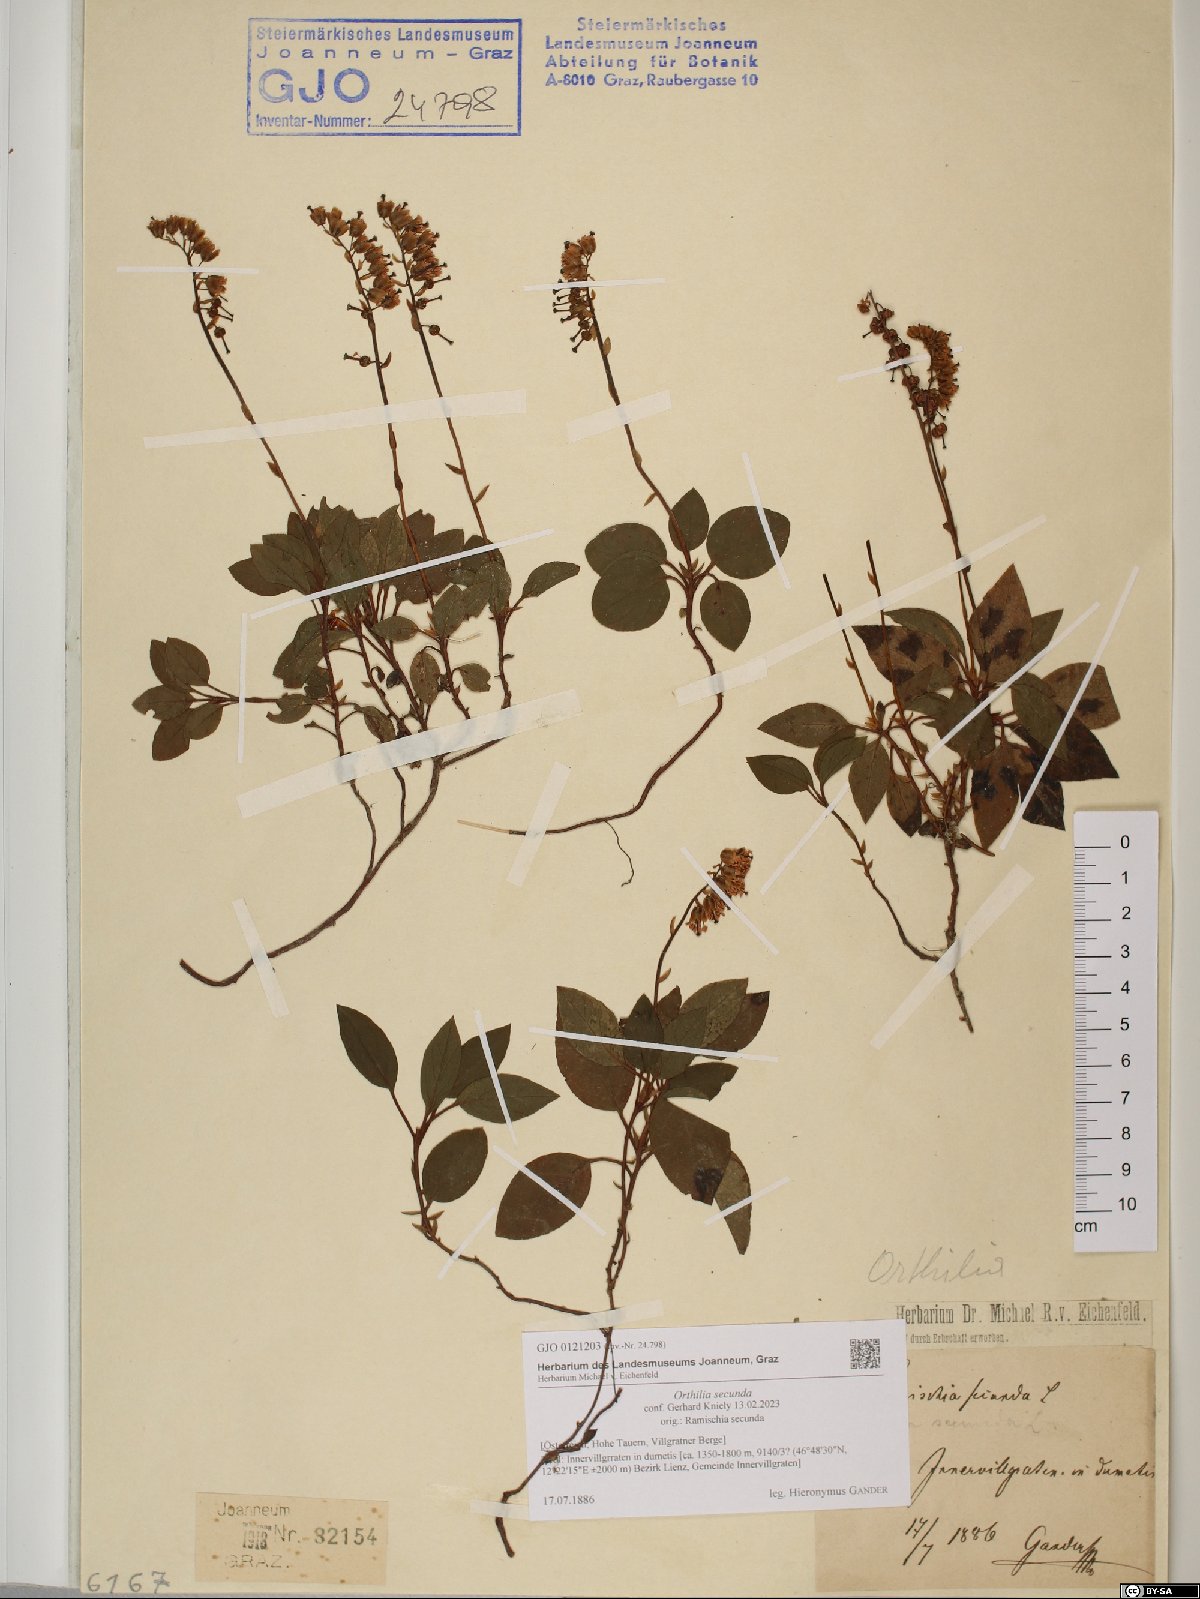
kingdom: Plantae
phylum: Tracheophyta
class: Magnoliopsida
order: Ericales
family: Ericaceae
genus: Orthilia
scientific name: Orthilia secunda
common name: One-sided orthilia
